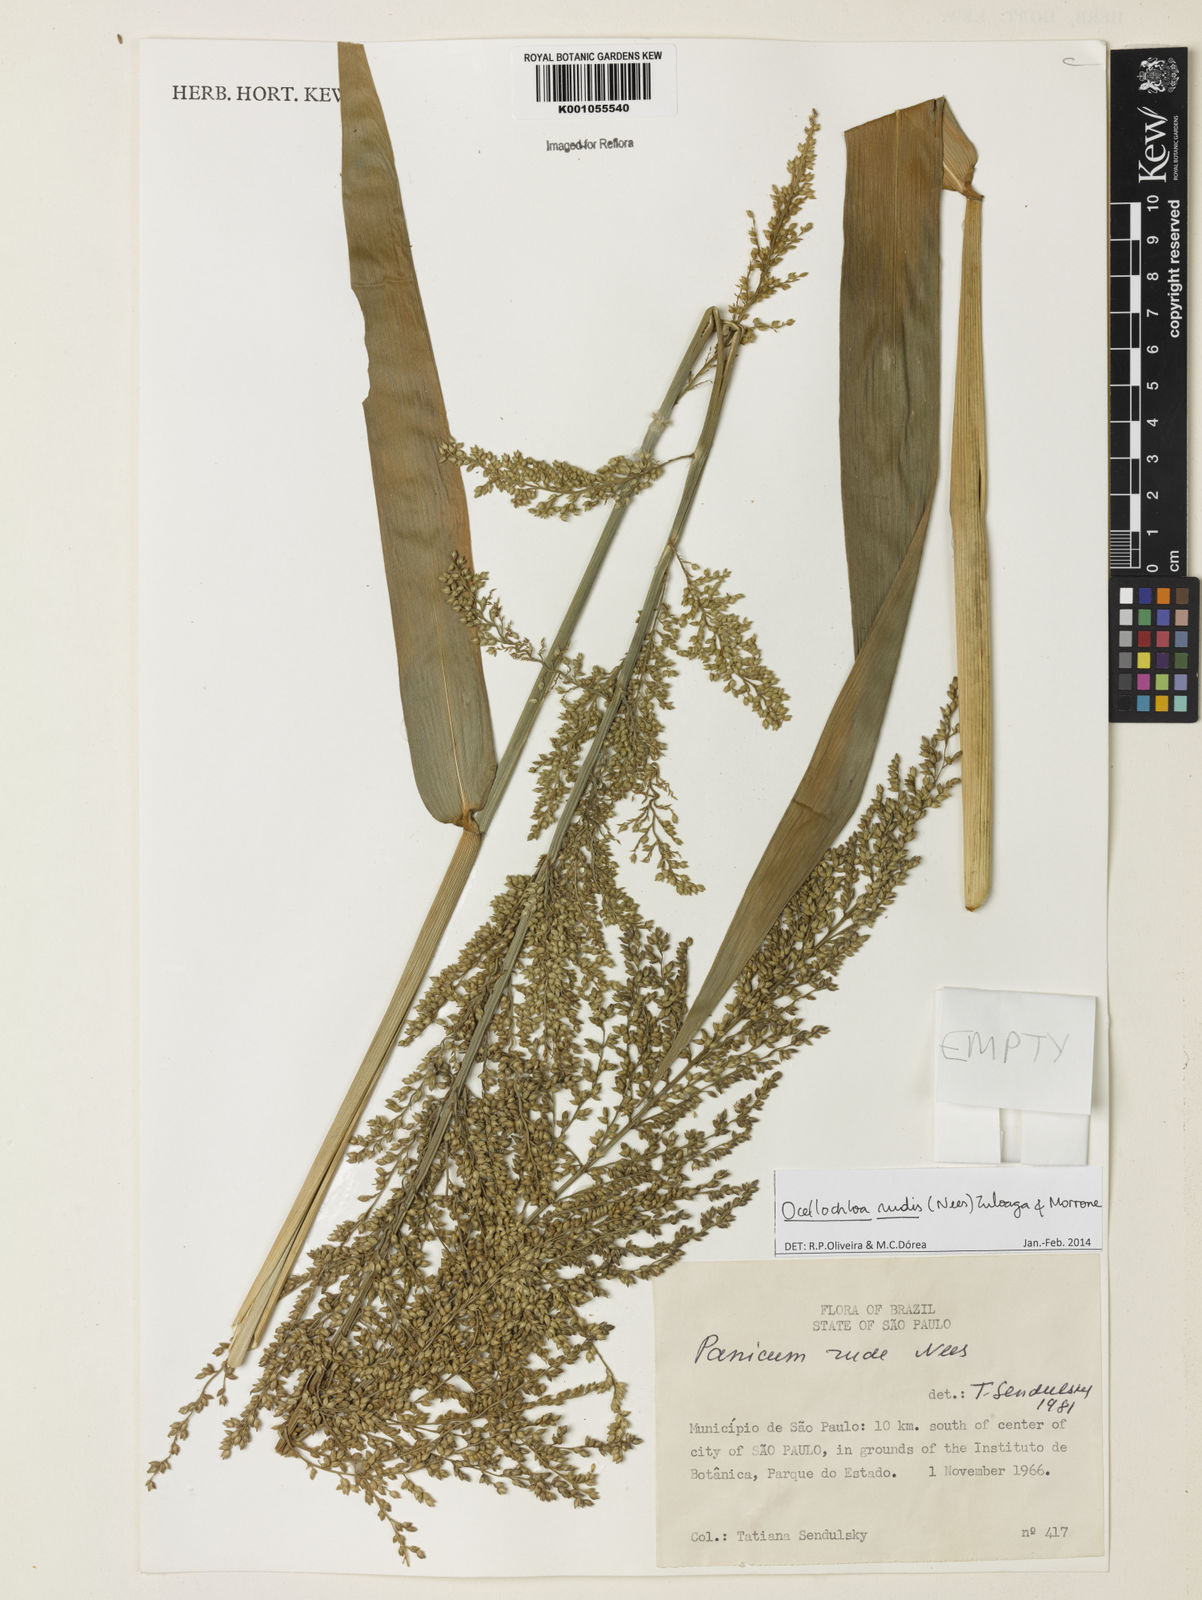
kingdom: Plantae
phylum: Tracheophyta
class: Liliopsida
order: Poales
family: Poaceae
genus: Ocellochloa
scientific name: Ocellochloa rudis
